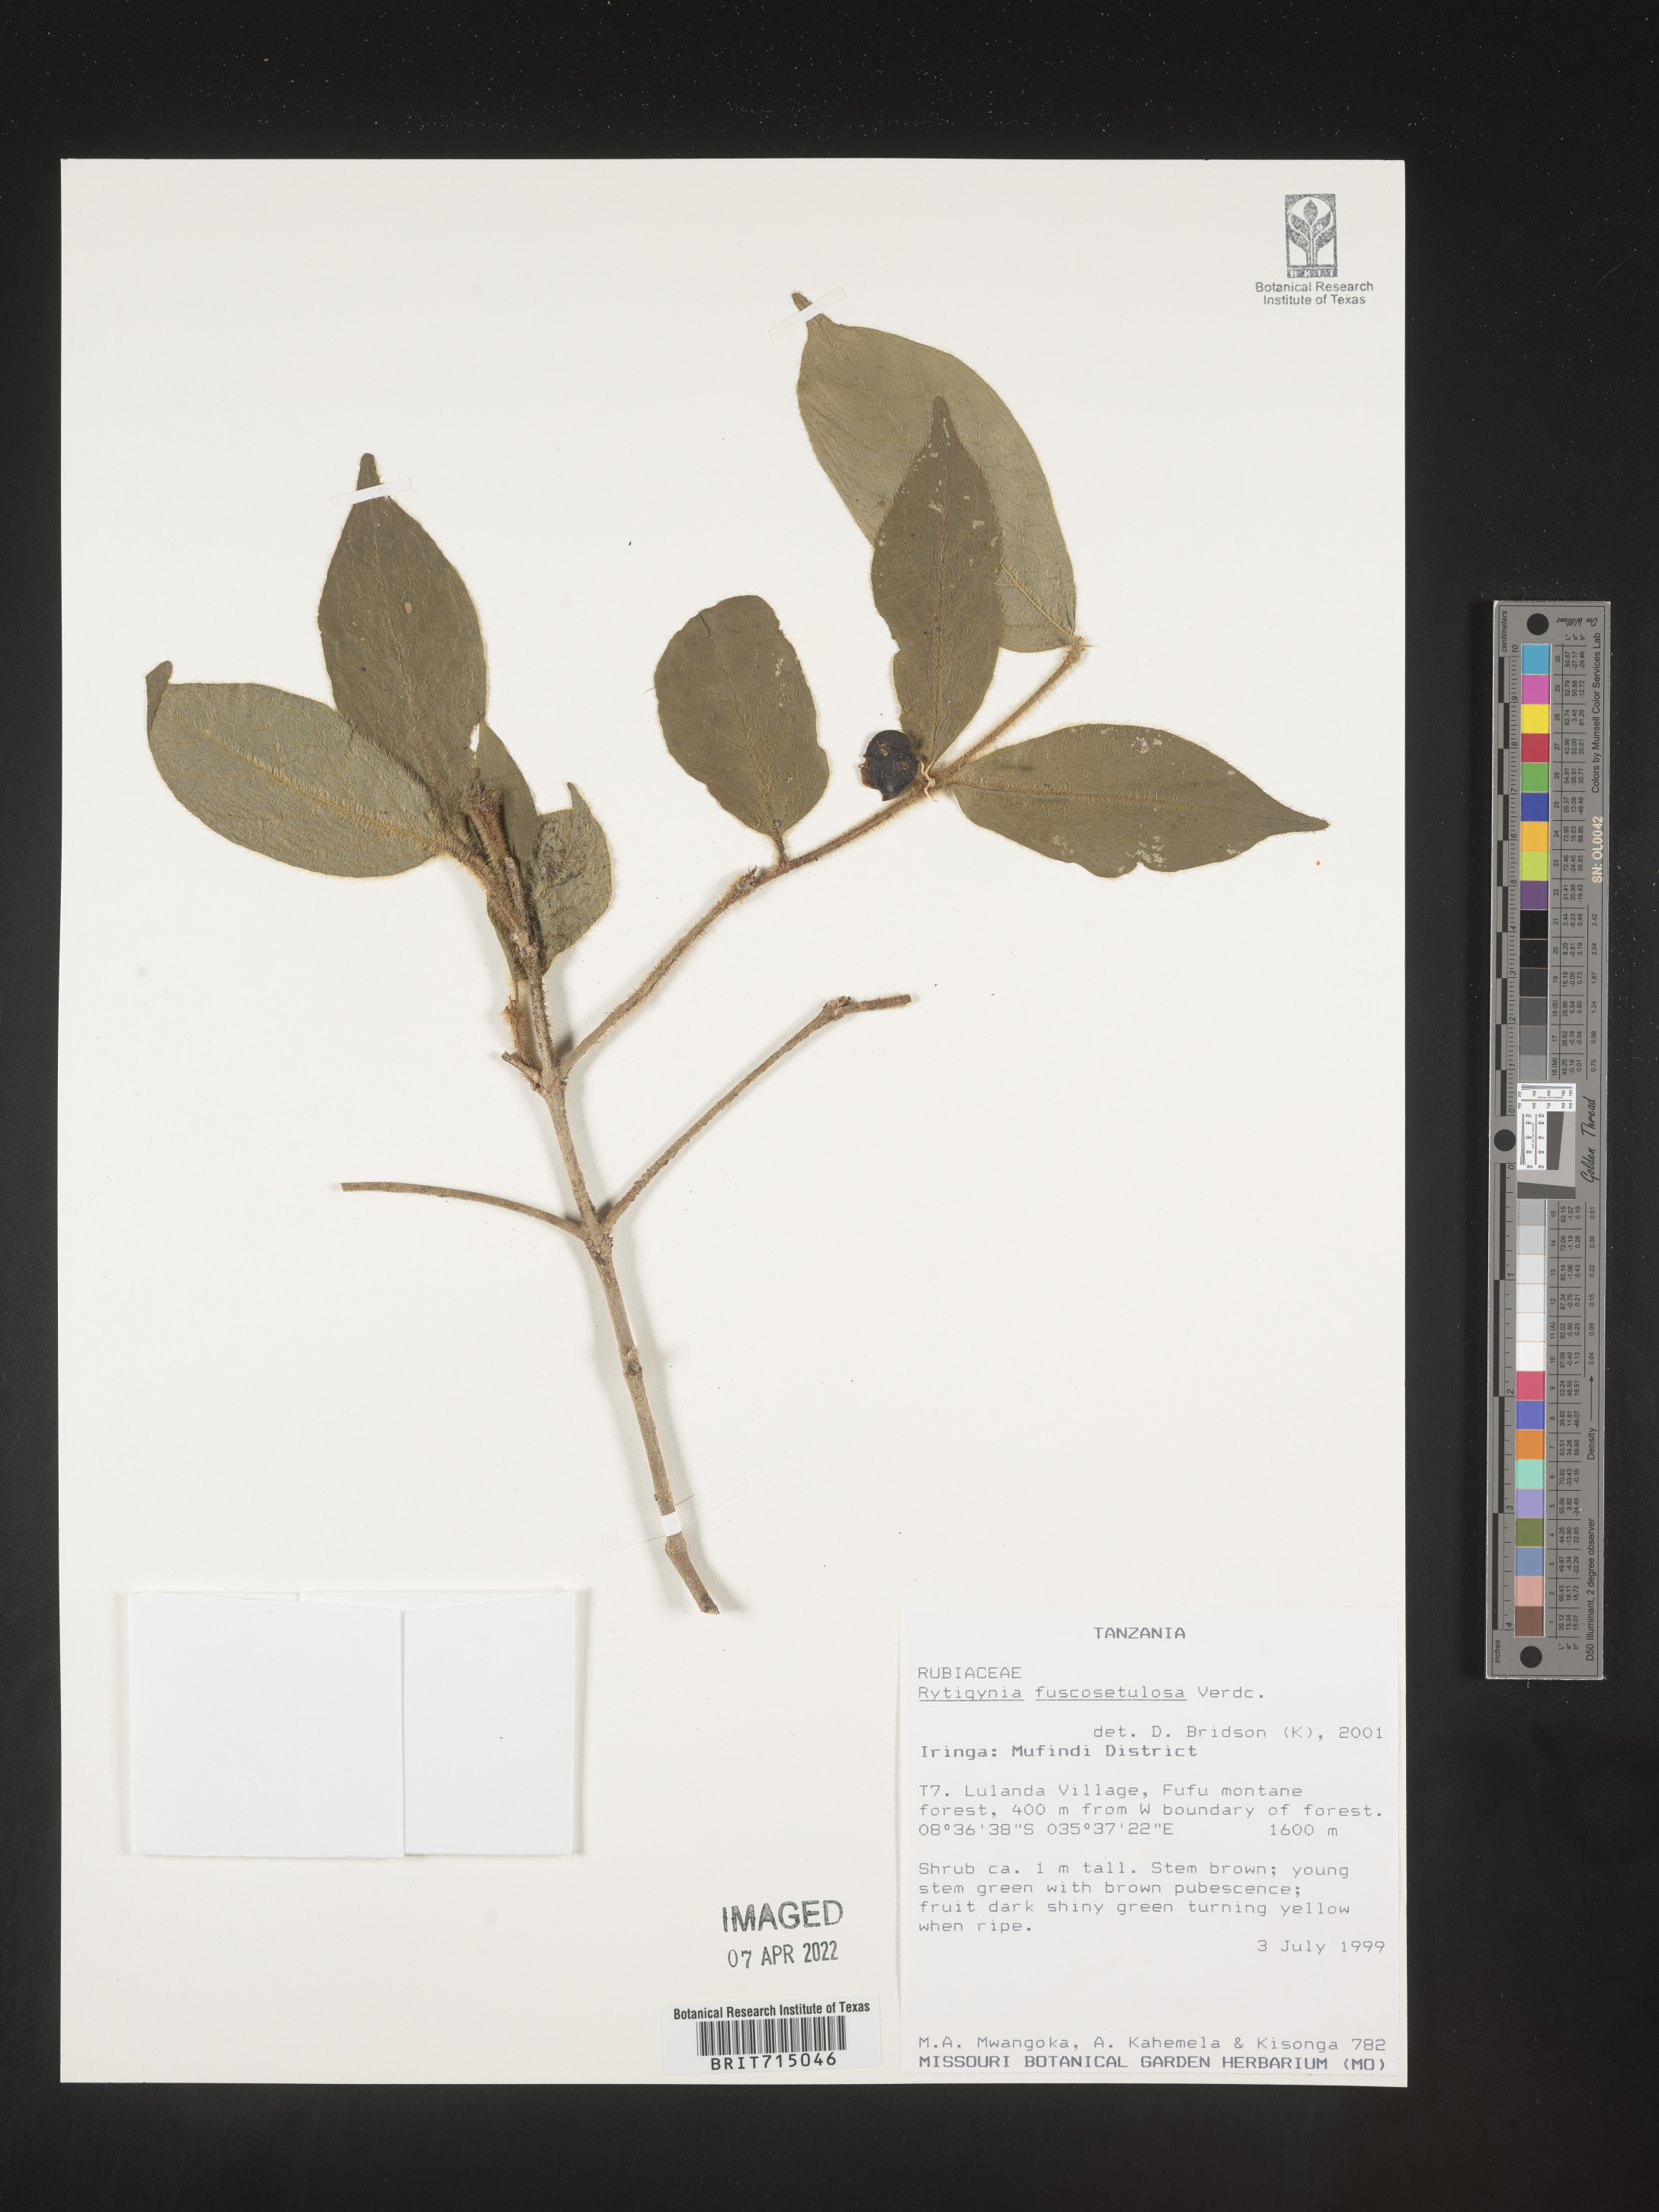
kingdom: Plantae
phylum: Tracheophyta
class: Magnoliopsida
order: Gentianales
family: Rubiaceae
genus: Rytigynia
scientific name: Rytigynia
